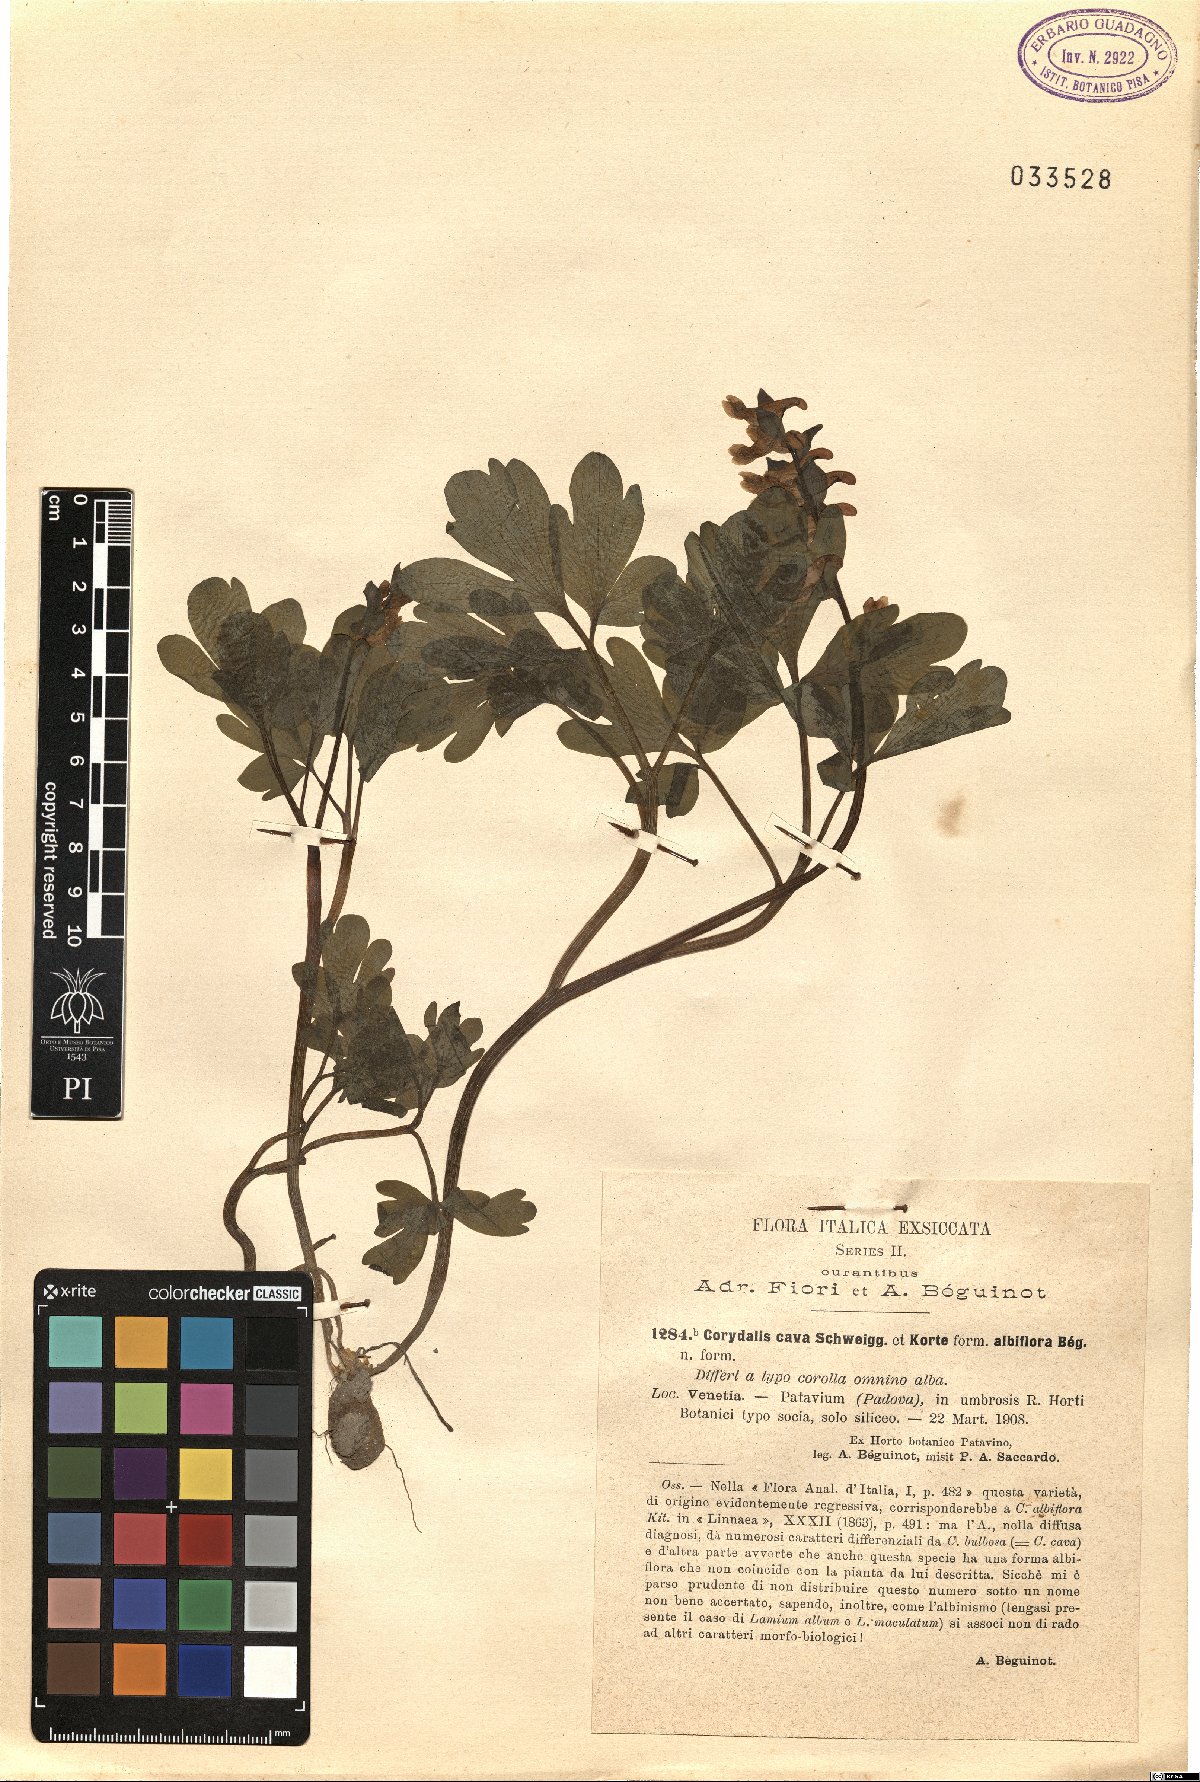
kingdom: Plantae
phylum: Tracheophyta
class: Magnoliopsida
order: Ranunculales
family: Papaveraceae
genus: Corydalis
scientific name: Corydalis cava
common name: Hollowroot
